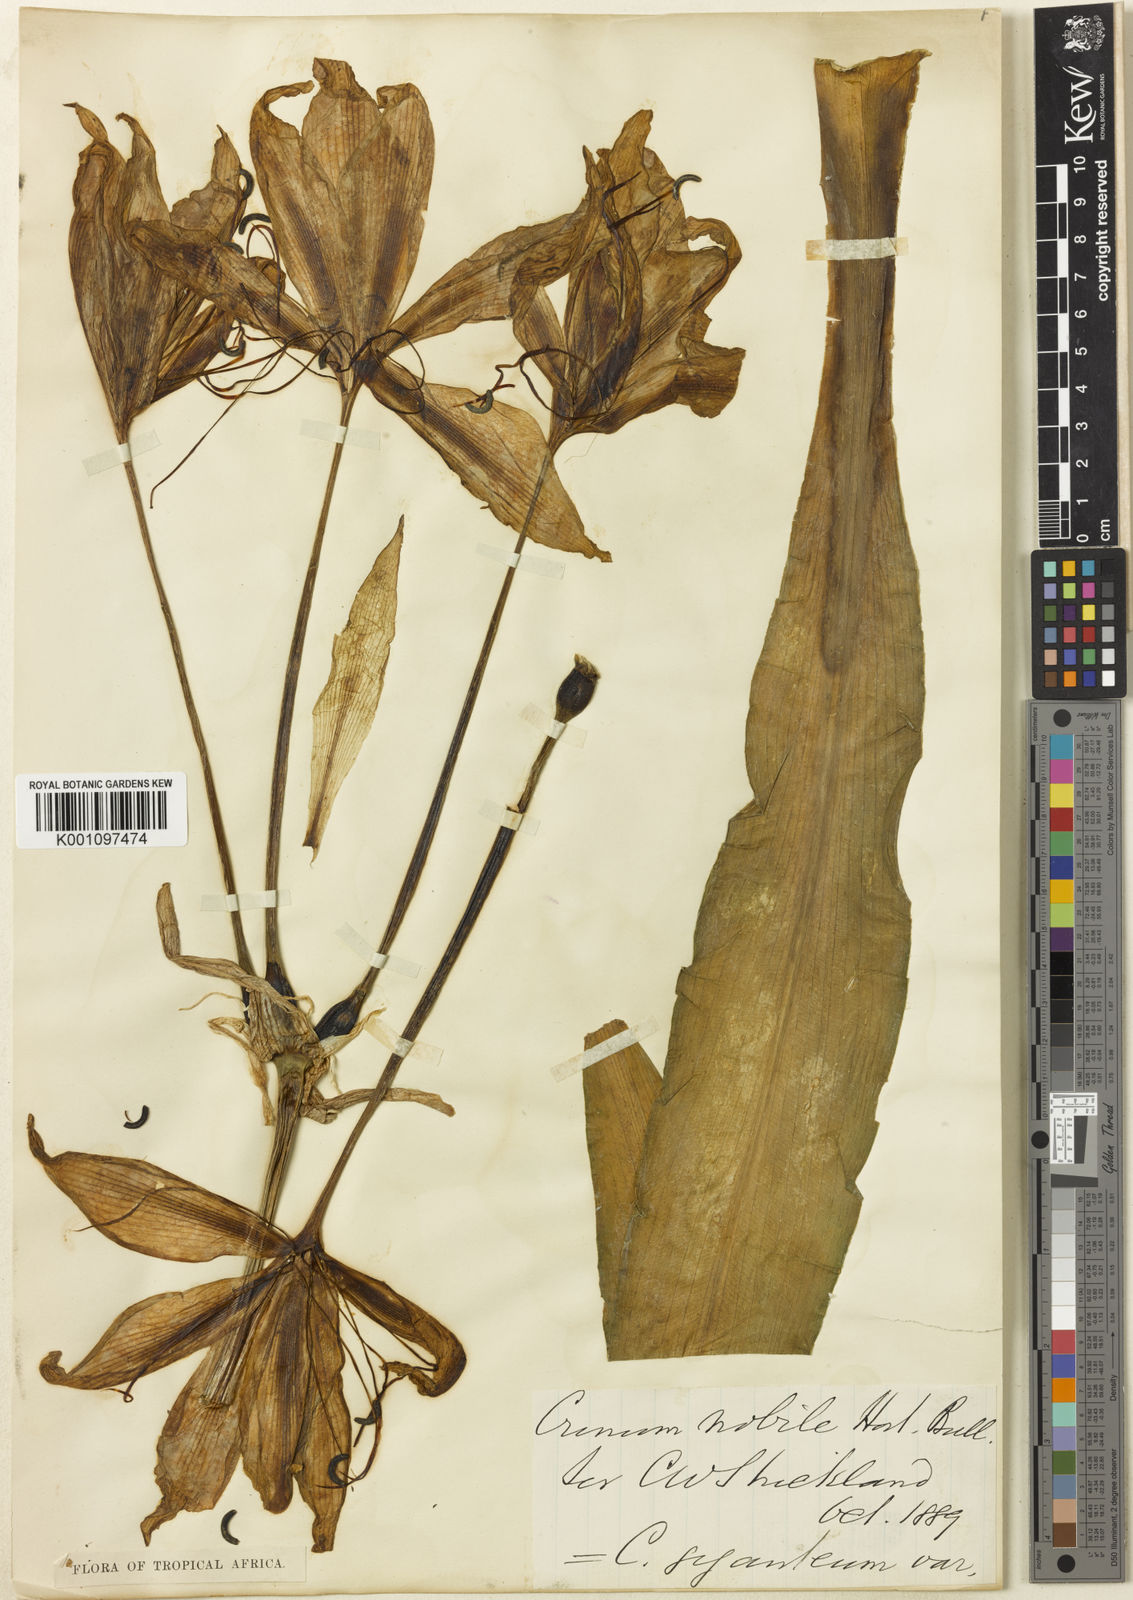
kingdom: Plantae
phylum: Tracheophyta
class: Liliopsida
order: Asparagales
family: Amaryllidaceae
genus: Crinum
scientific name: Crinum jagus
